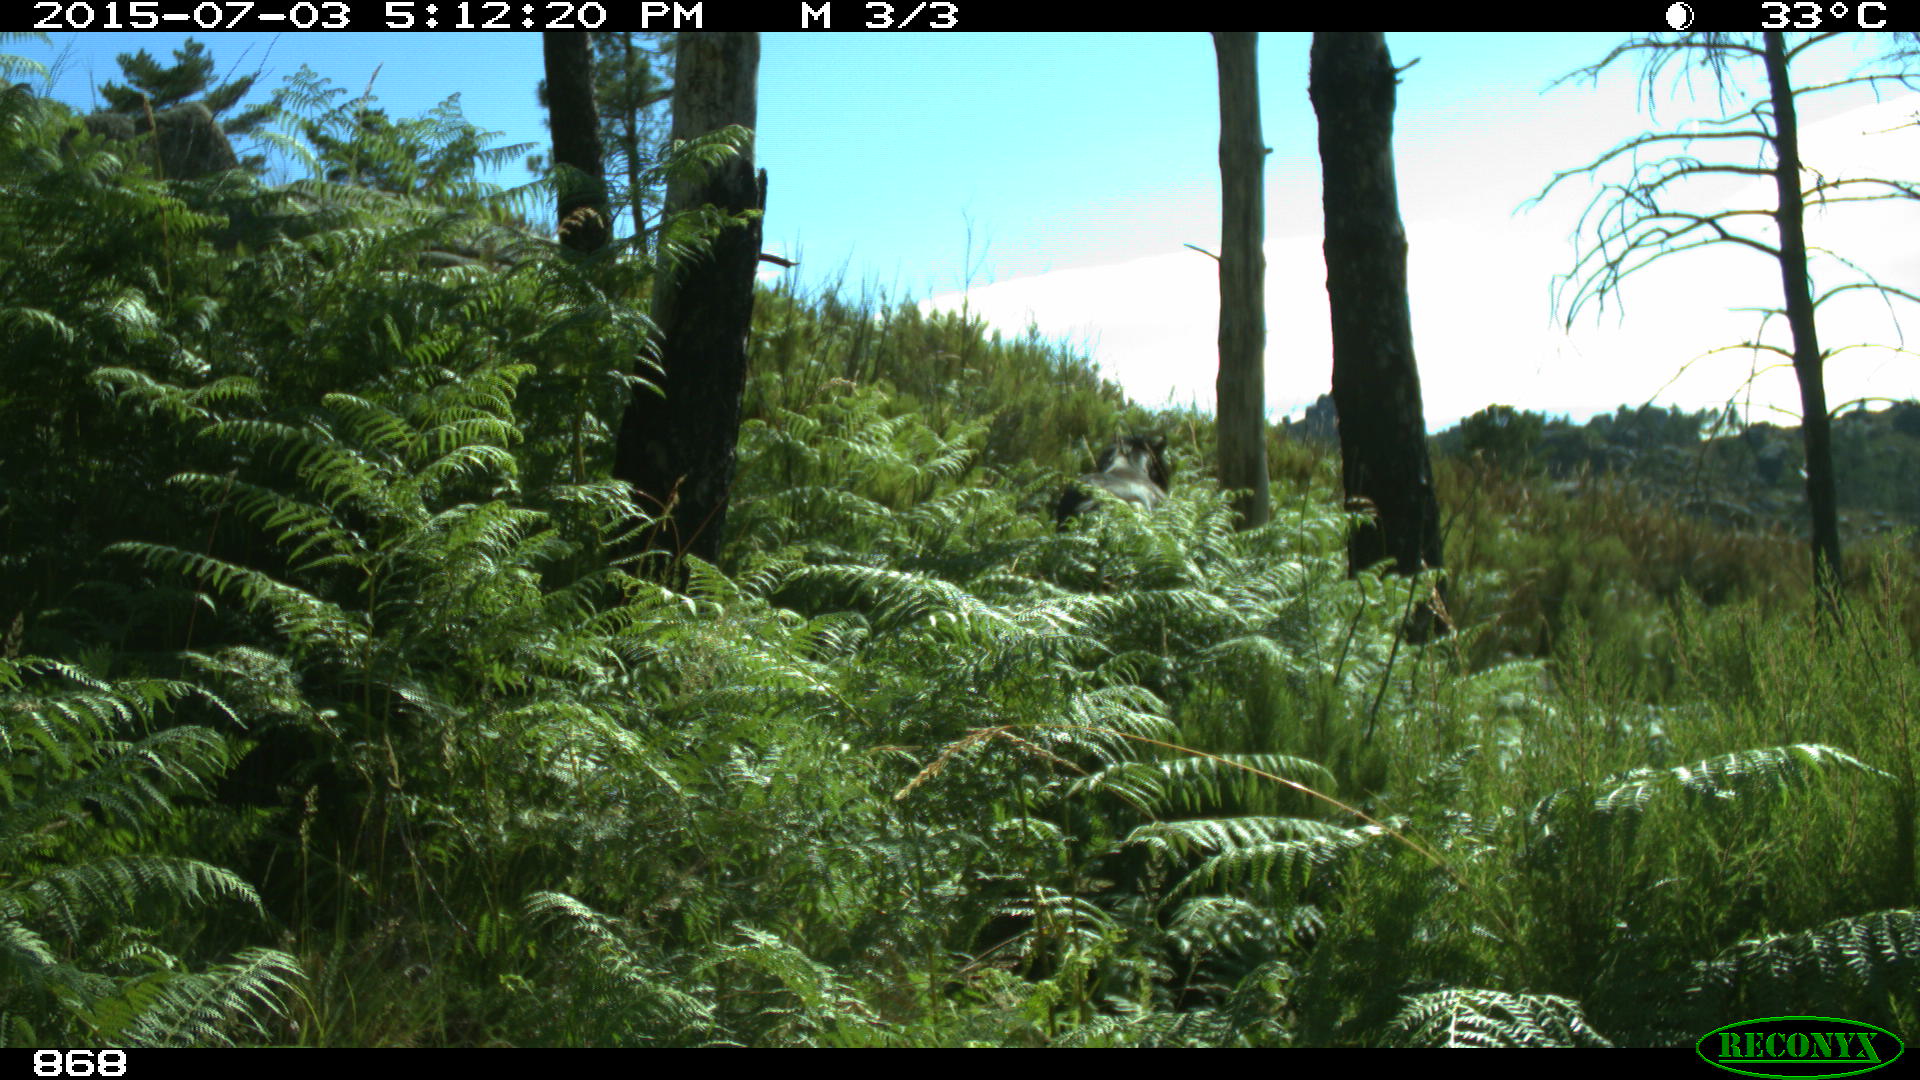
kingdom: Animalia
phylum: Chordata
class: Mammalia
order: Perissodactyla
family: Equidae
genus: Equus
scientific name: Equus caballus
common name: Horse
